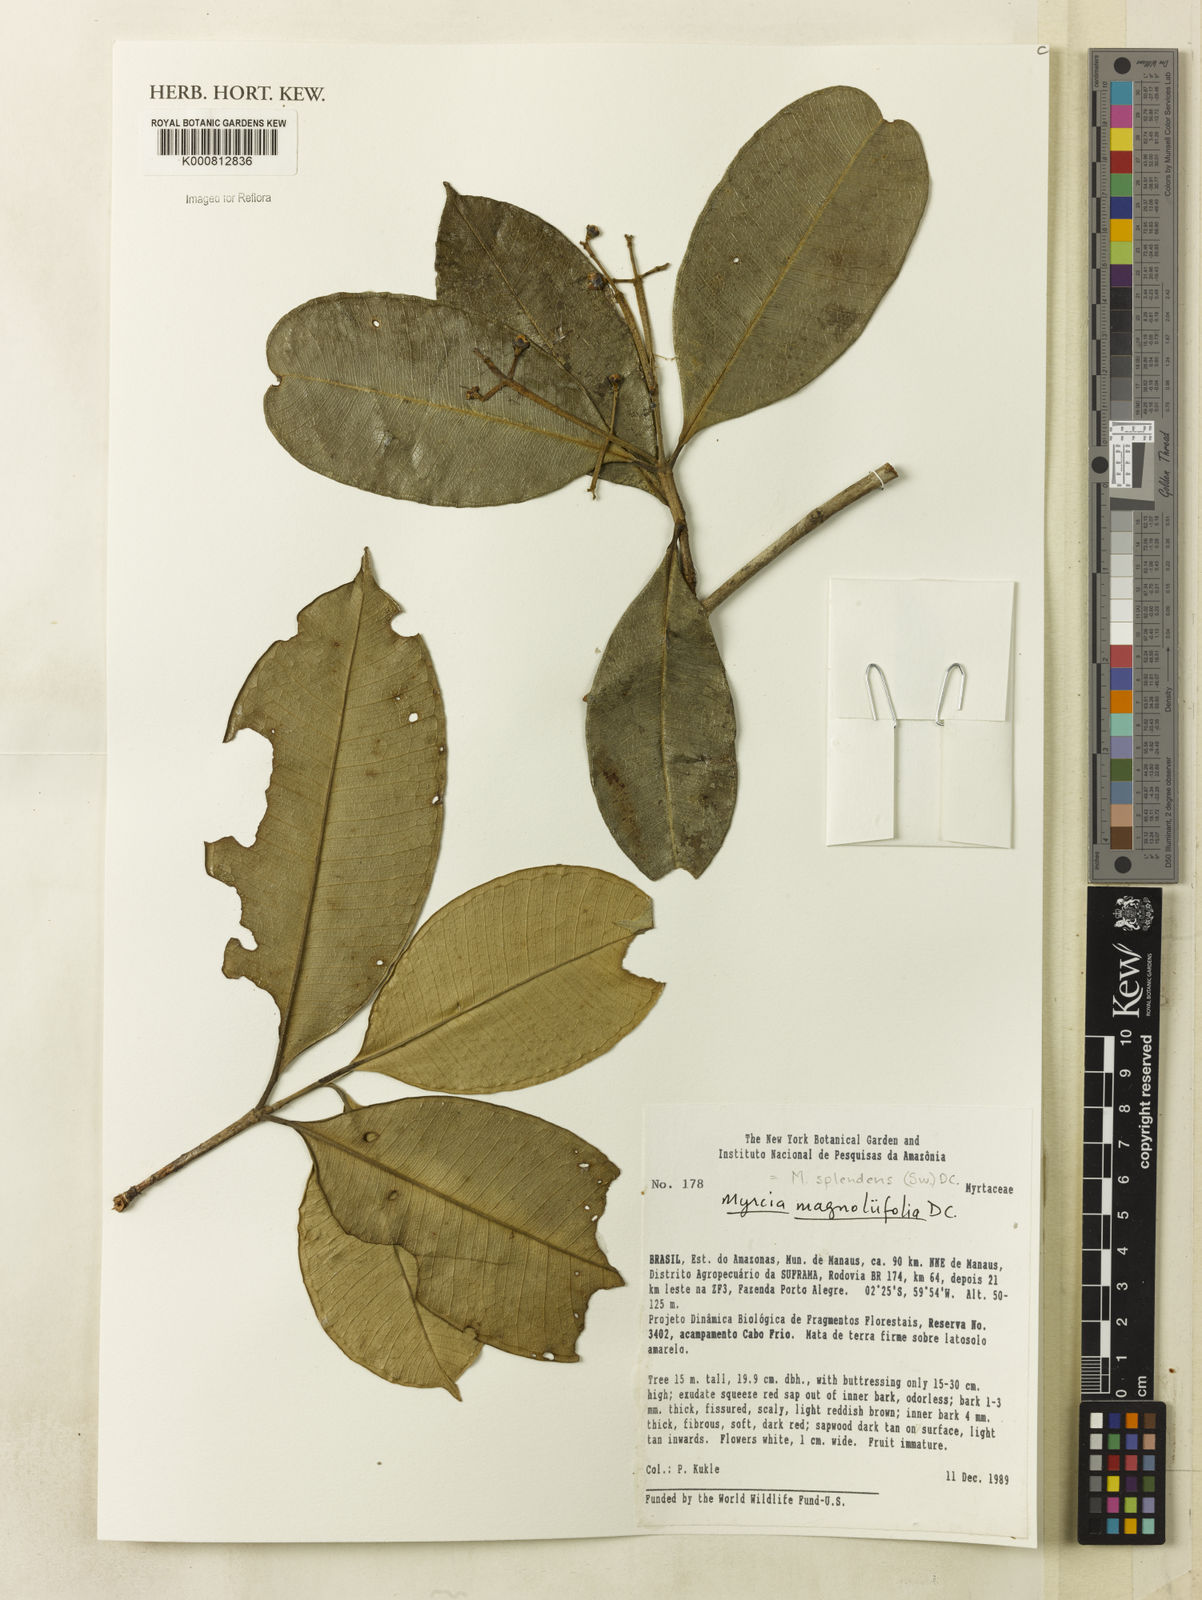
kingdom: Plantae
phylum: Tracheophyta
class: Magnoliopsida
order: Myrtales
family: Myrtaceae
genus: Myrcia
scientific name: Myrcia splendens
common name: Surinam cherry
